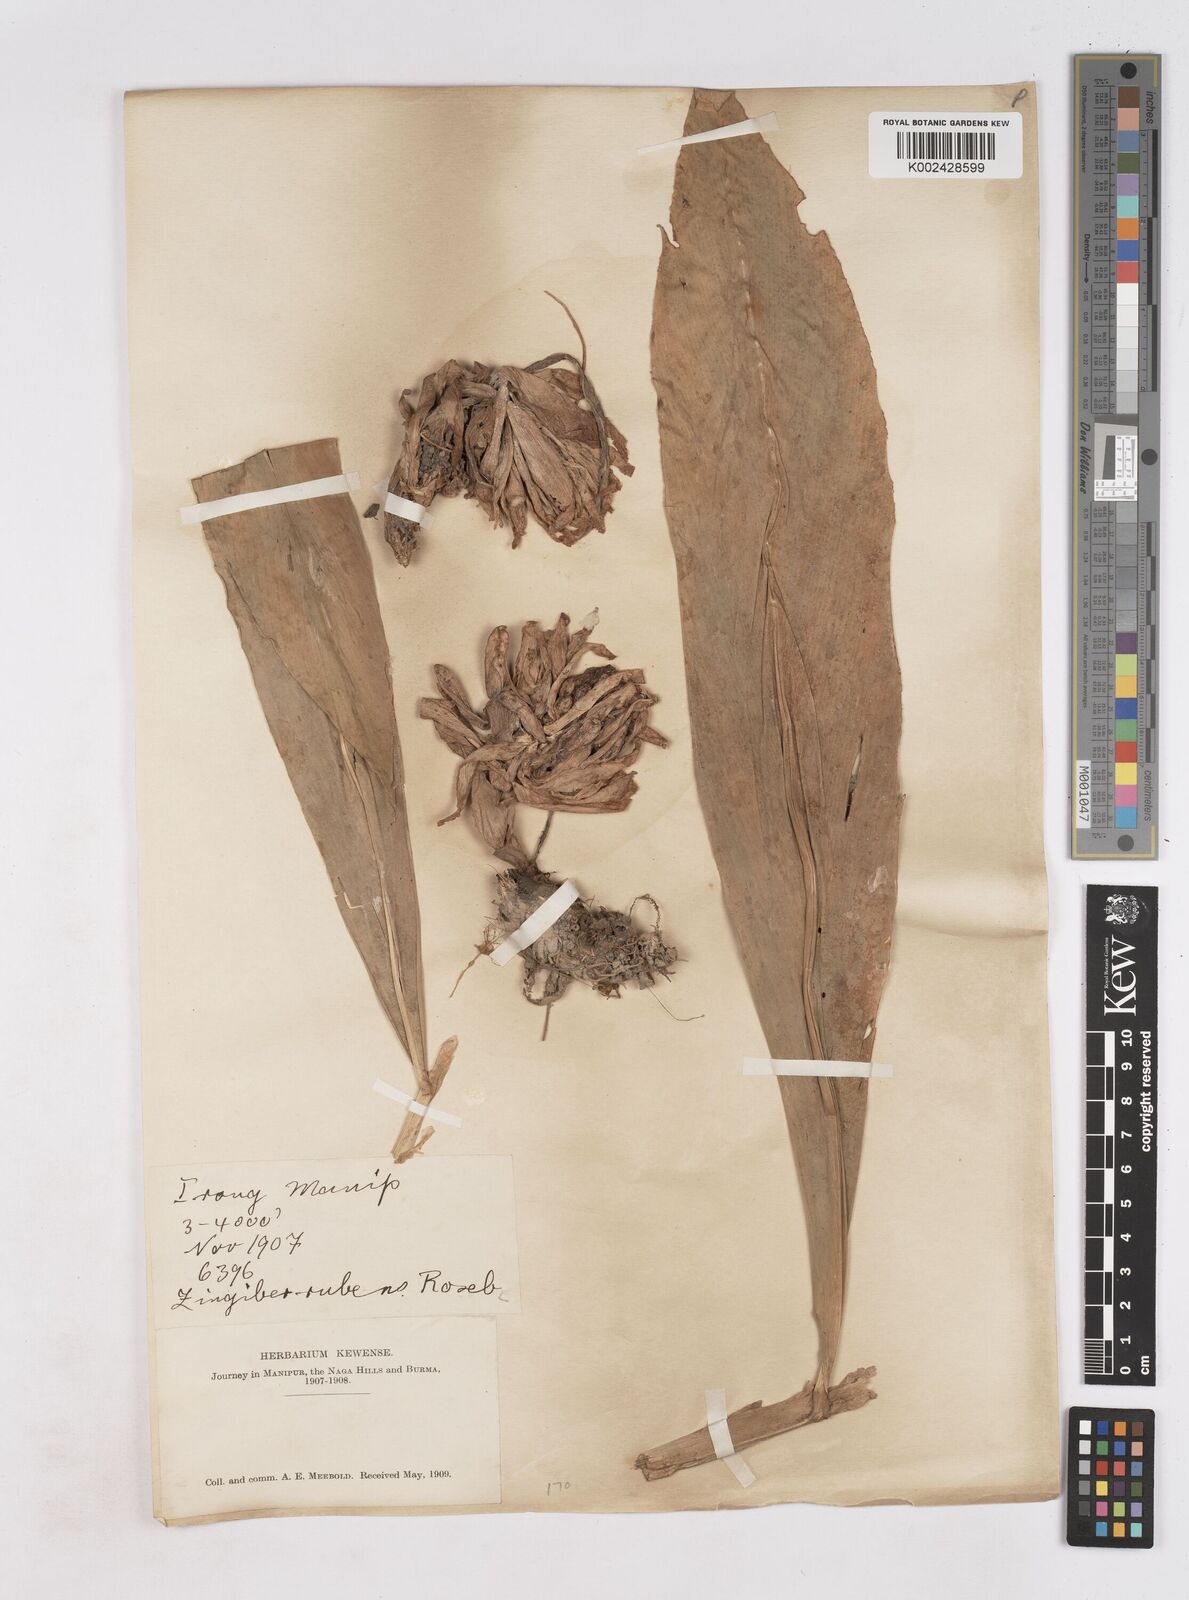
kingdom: Plantae
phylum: Tracheophyta
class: Liliopsida
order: Zingiberales
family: Zingiberaceae
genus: Zingiber
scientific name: Zingiber rubens
